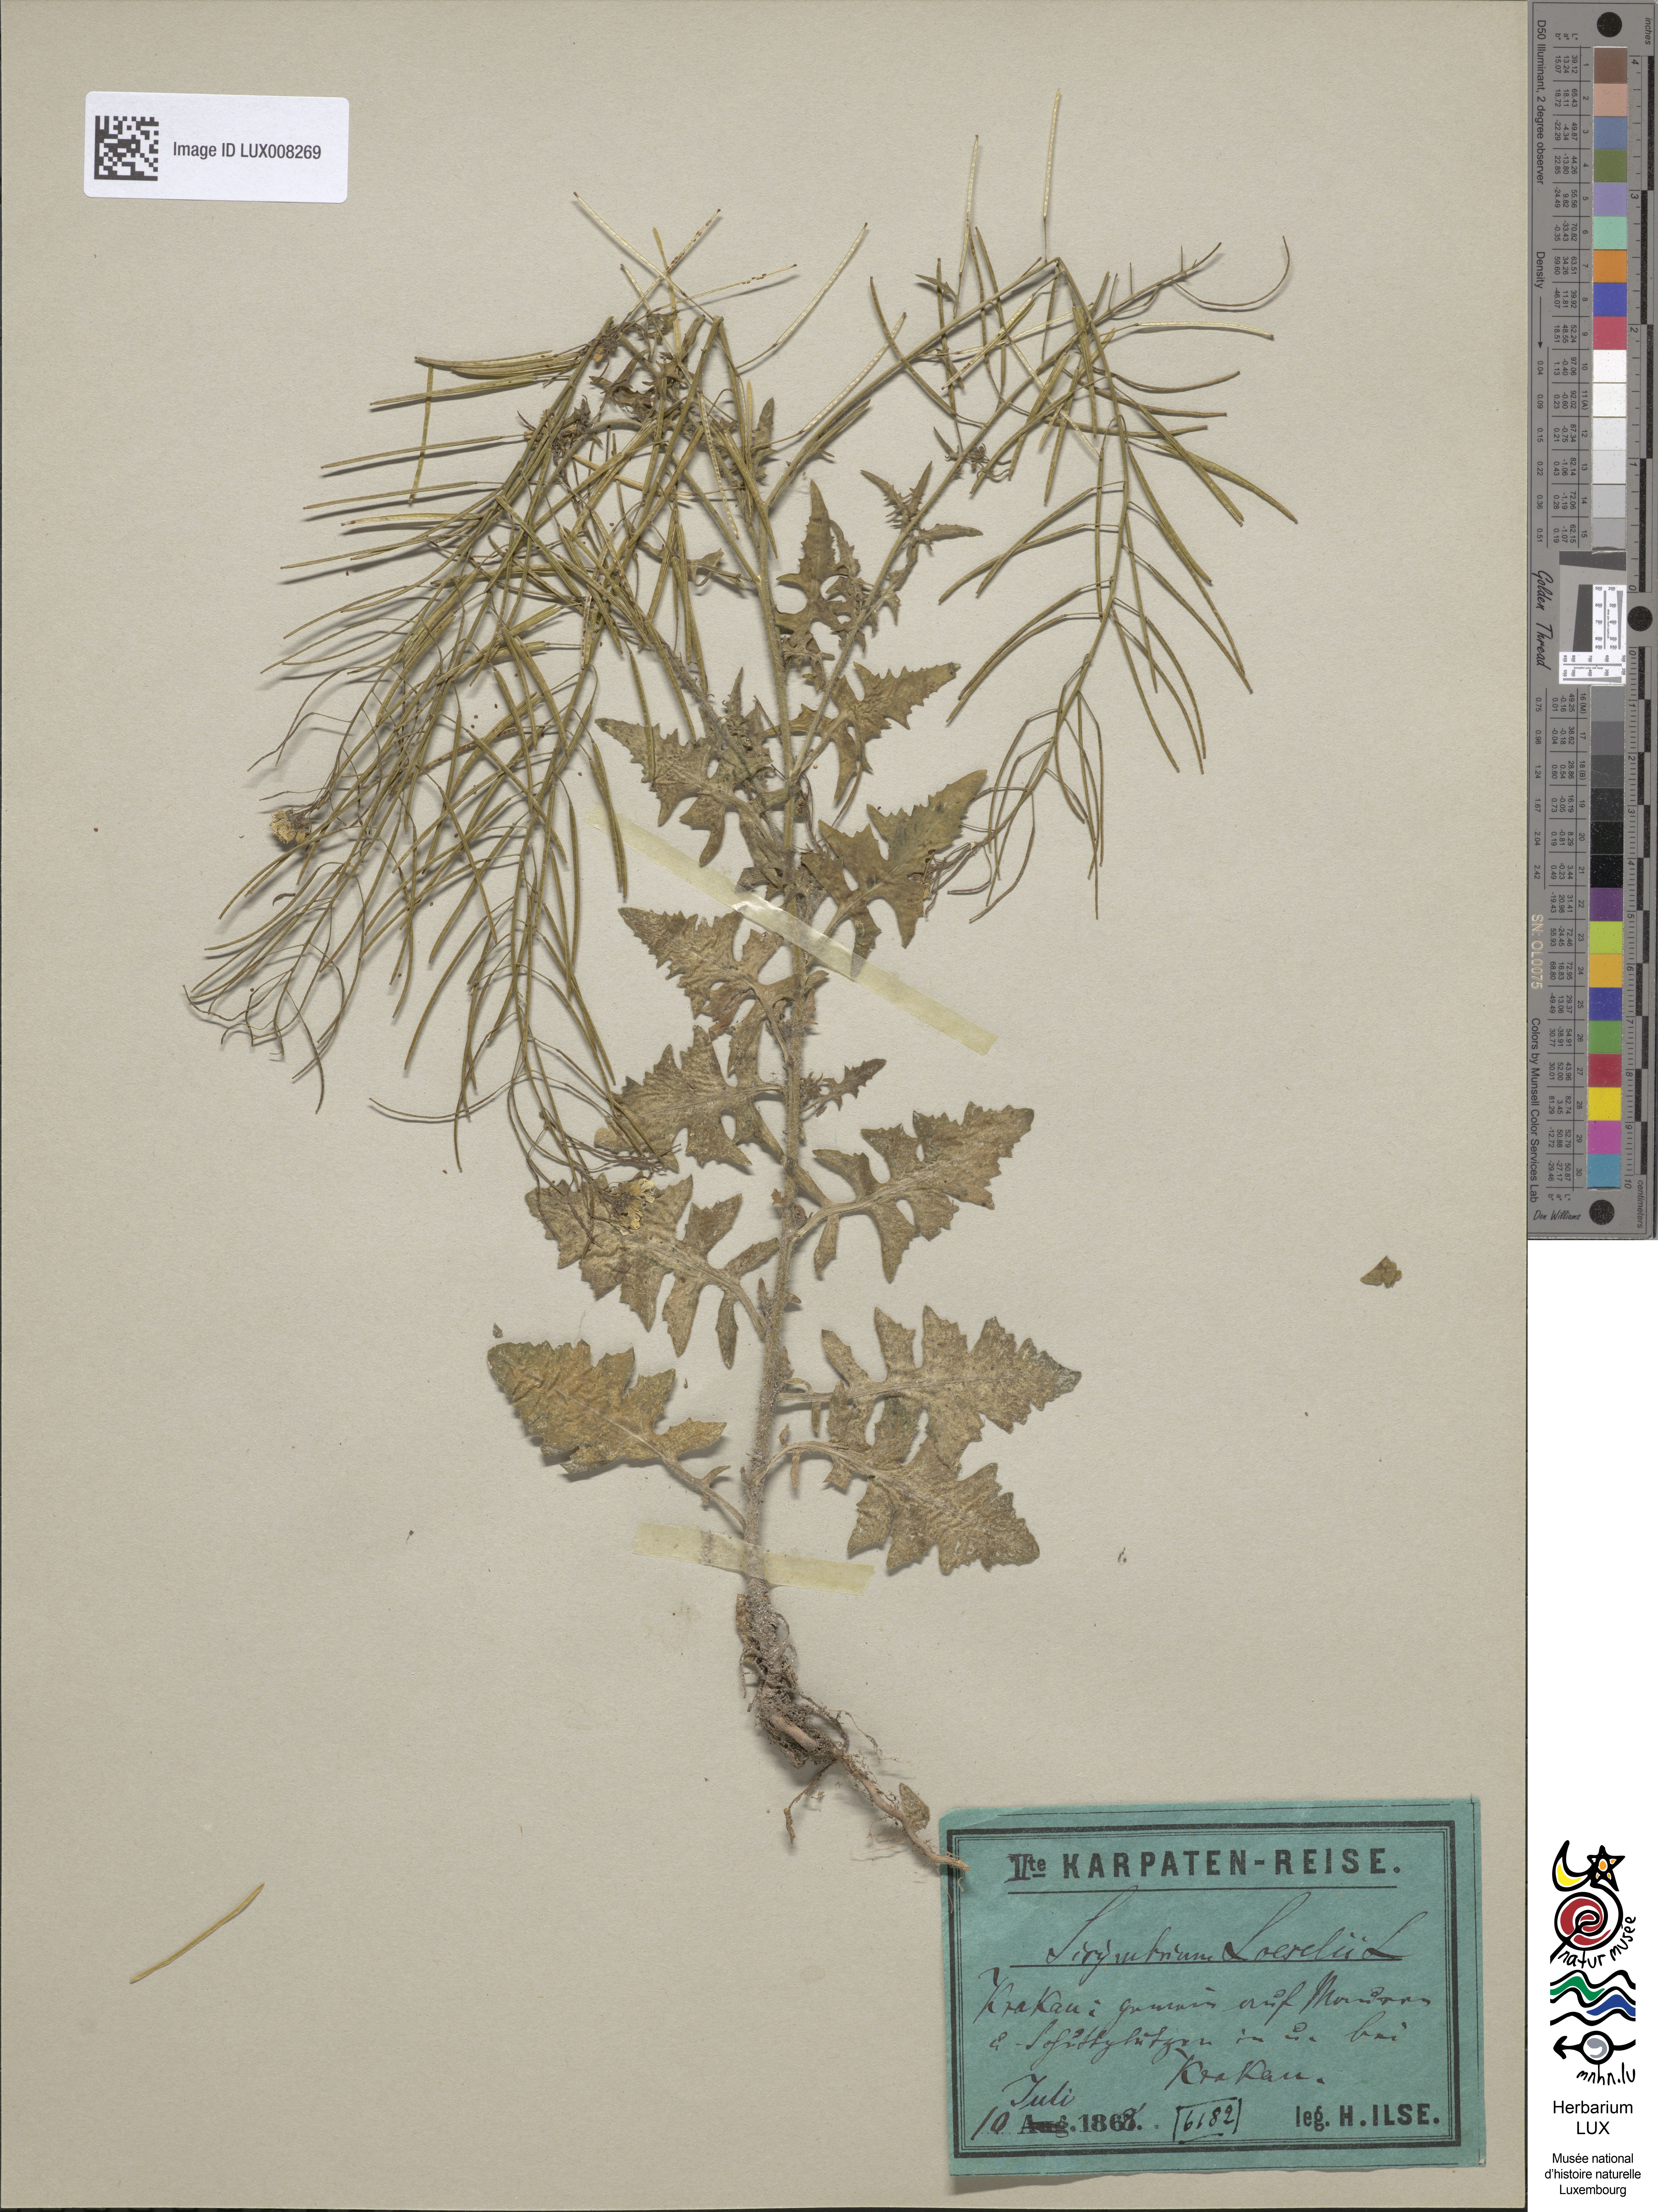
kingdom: Plantae
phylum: Tracheophyta
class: Magnoliopsida
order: Brassicales
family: Brassicaceae
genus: Sisymbrium
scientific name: Sisymbrium loeselii
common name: False london-rocket
